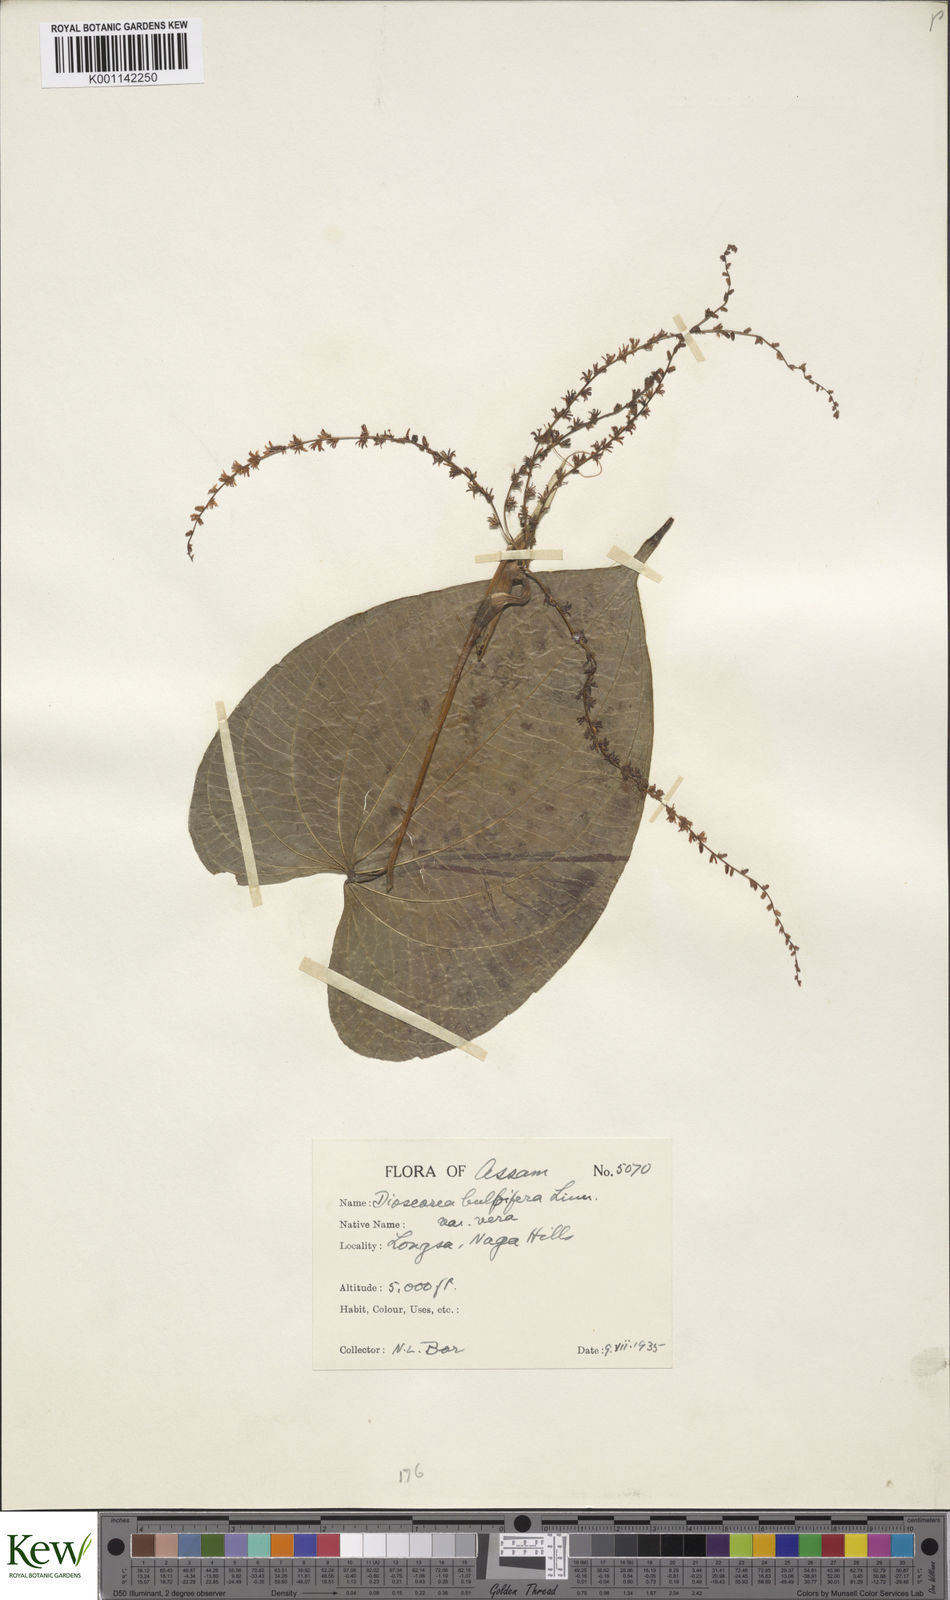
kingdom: Plantae
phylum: Tracheophyta
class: Liliopsida
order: Dioscoreales
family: Dioscoreaceae
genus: Dioscorea
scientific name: Dioscorea bulbifera
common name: Air yam
